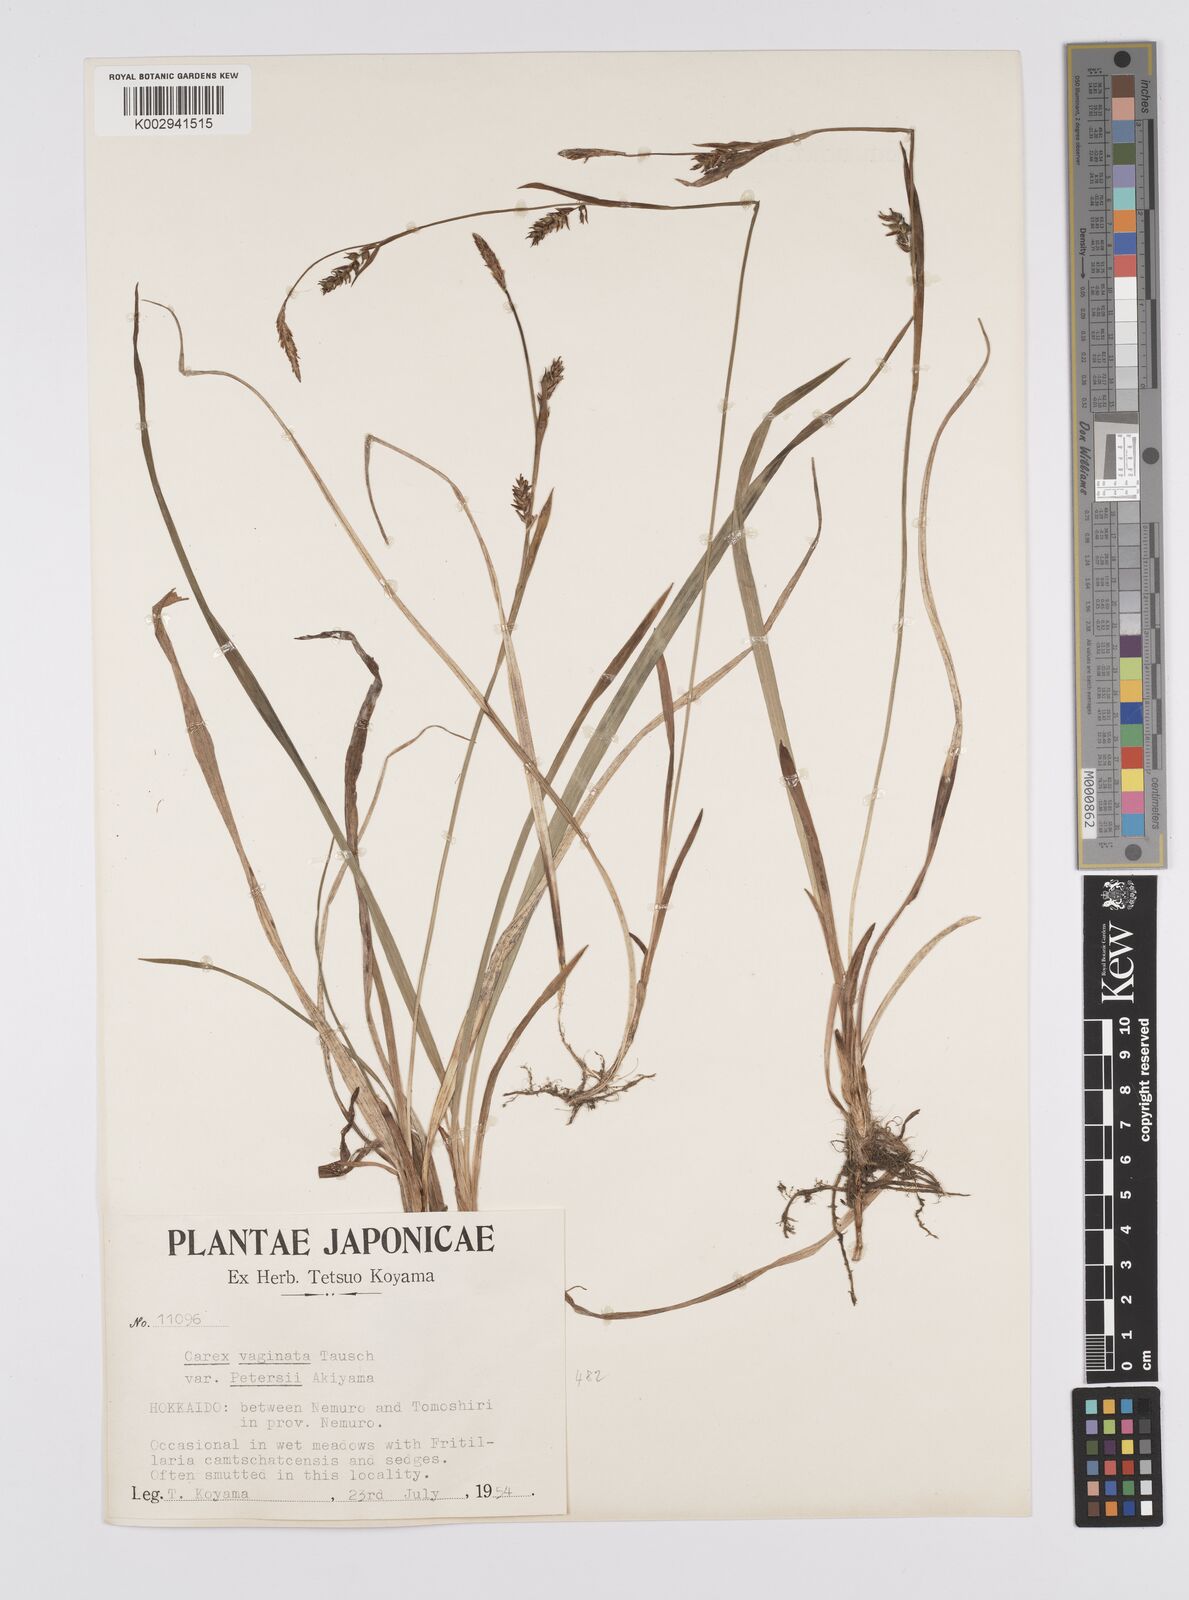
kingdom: Plantae
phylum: Tracheophyta
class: Liliopsida
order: Poales
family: Cyperaceae
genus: Carex
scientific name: Carex vaginata
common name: Sheathed sedge
